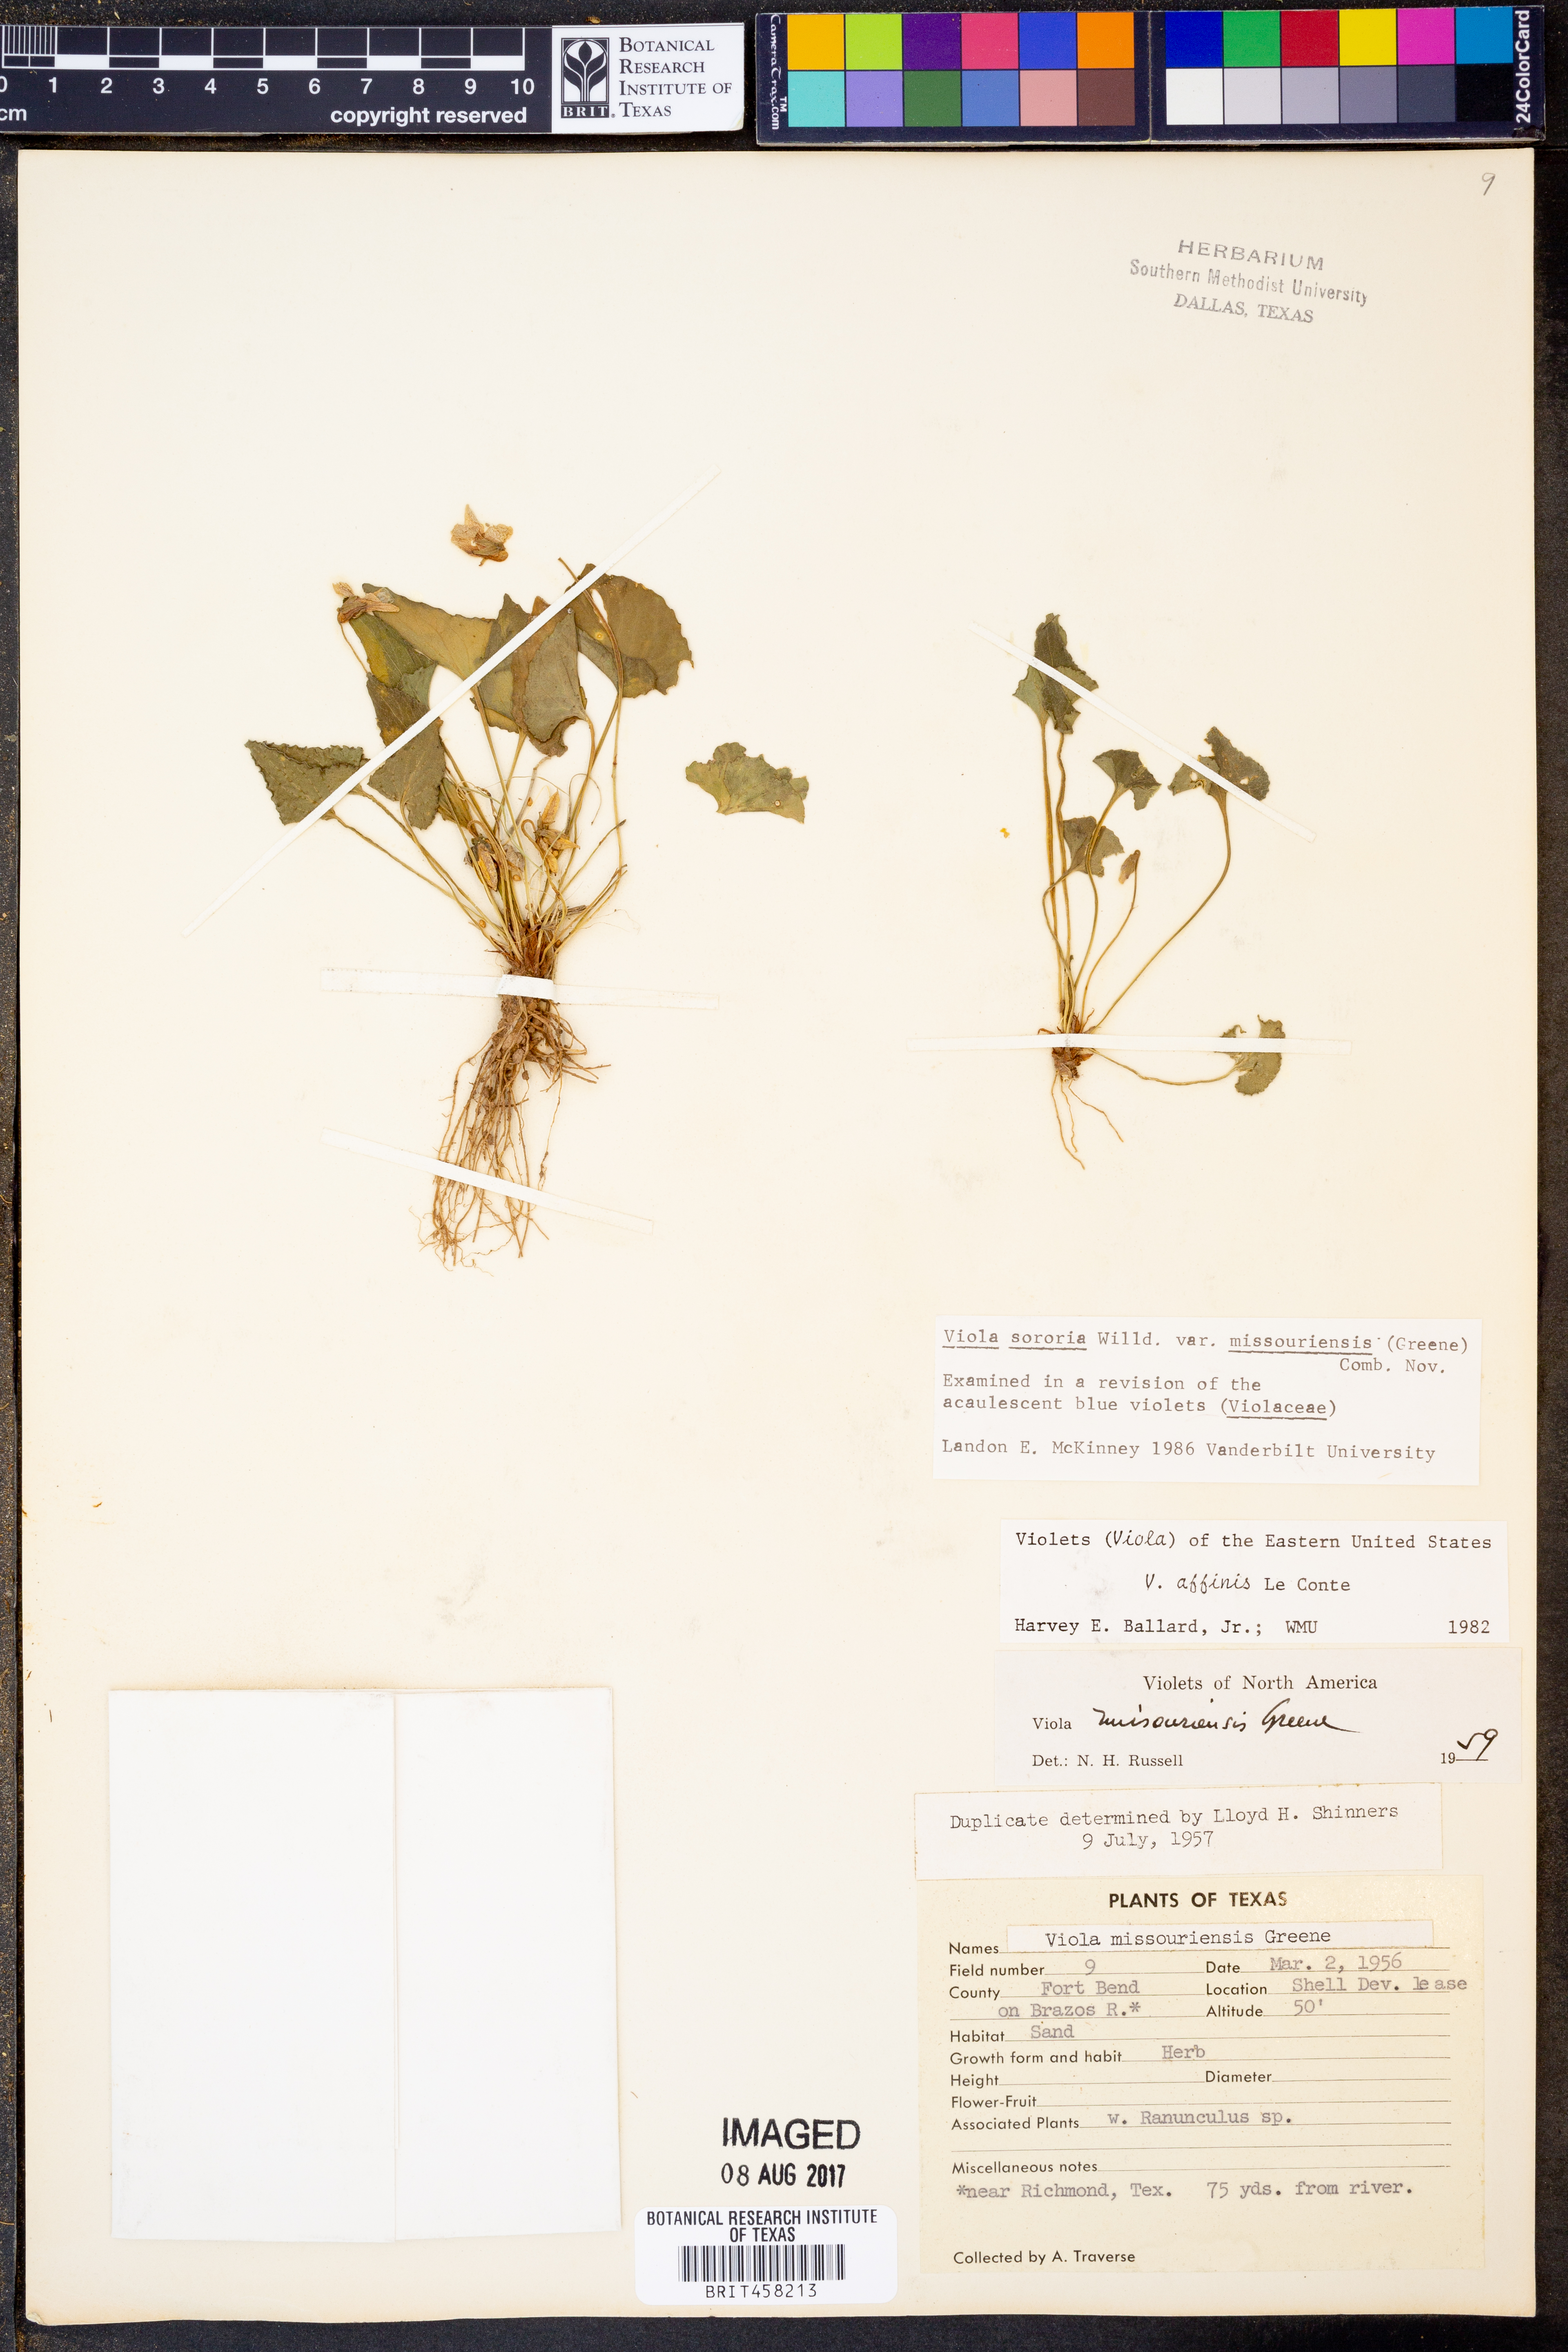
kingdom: Plantae
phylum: Tracheophyta
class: Magnoliopsida
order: Malpighiales
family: Violaceae
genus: Viola
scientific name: Viola missouriensis
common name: Missouri violet
